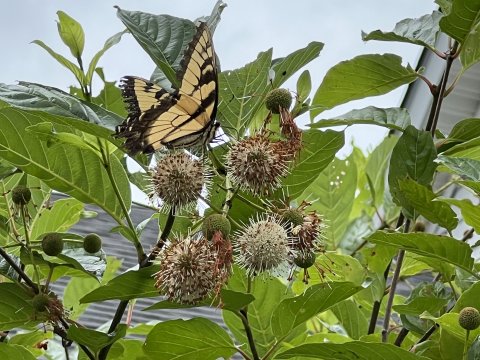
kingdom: Animalia
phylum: Arthropoda
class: Insecta
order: Lepidoptera
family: Papilionidae
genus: Pterourus
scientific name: Pterourus glaucus
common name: Eastern Tiger Swallowtail
